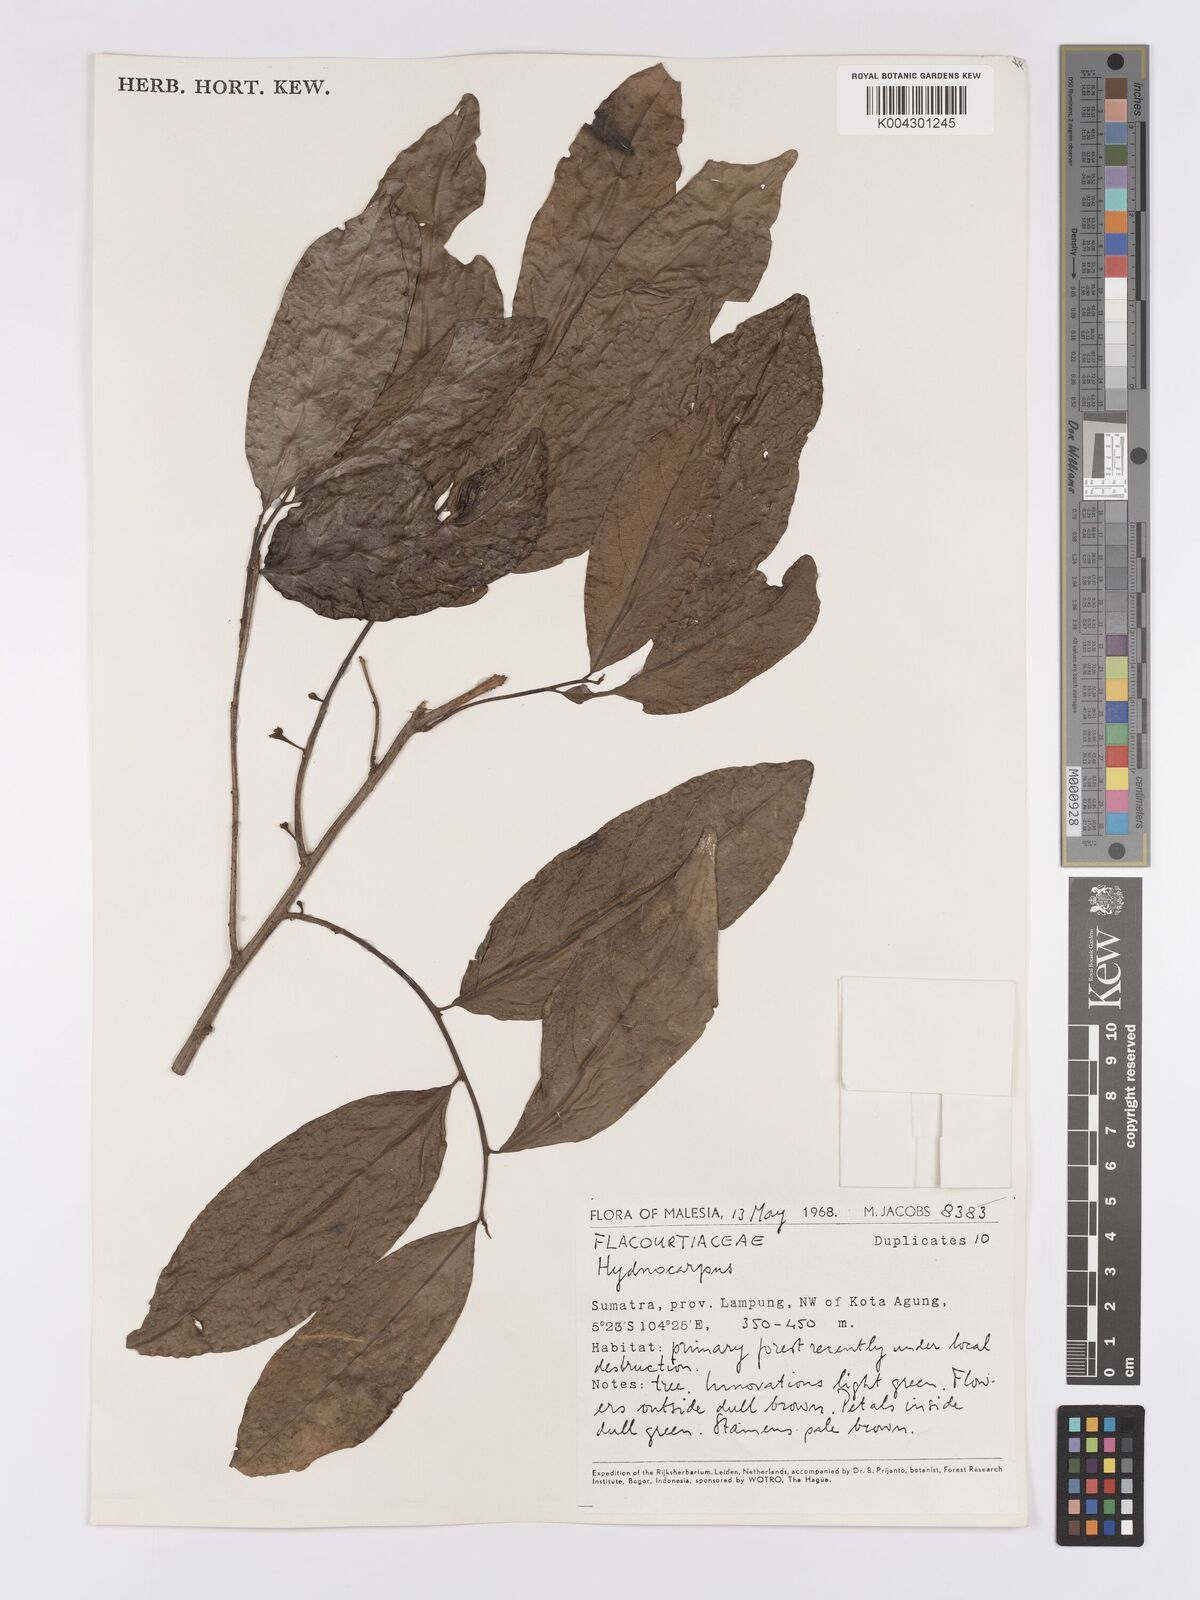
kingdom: Plantae
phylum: Tracheophyta
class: Magnoliopsida
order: Malpighiales
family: Achariaceae
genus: Hydnocarpus
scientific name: Hydnocarpus
